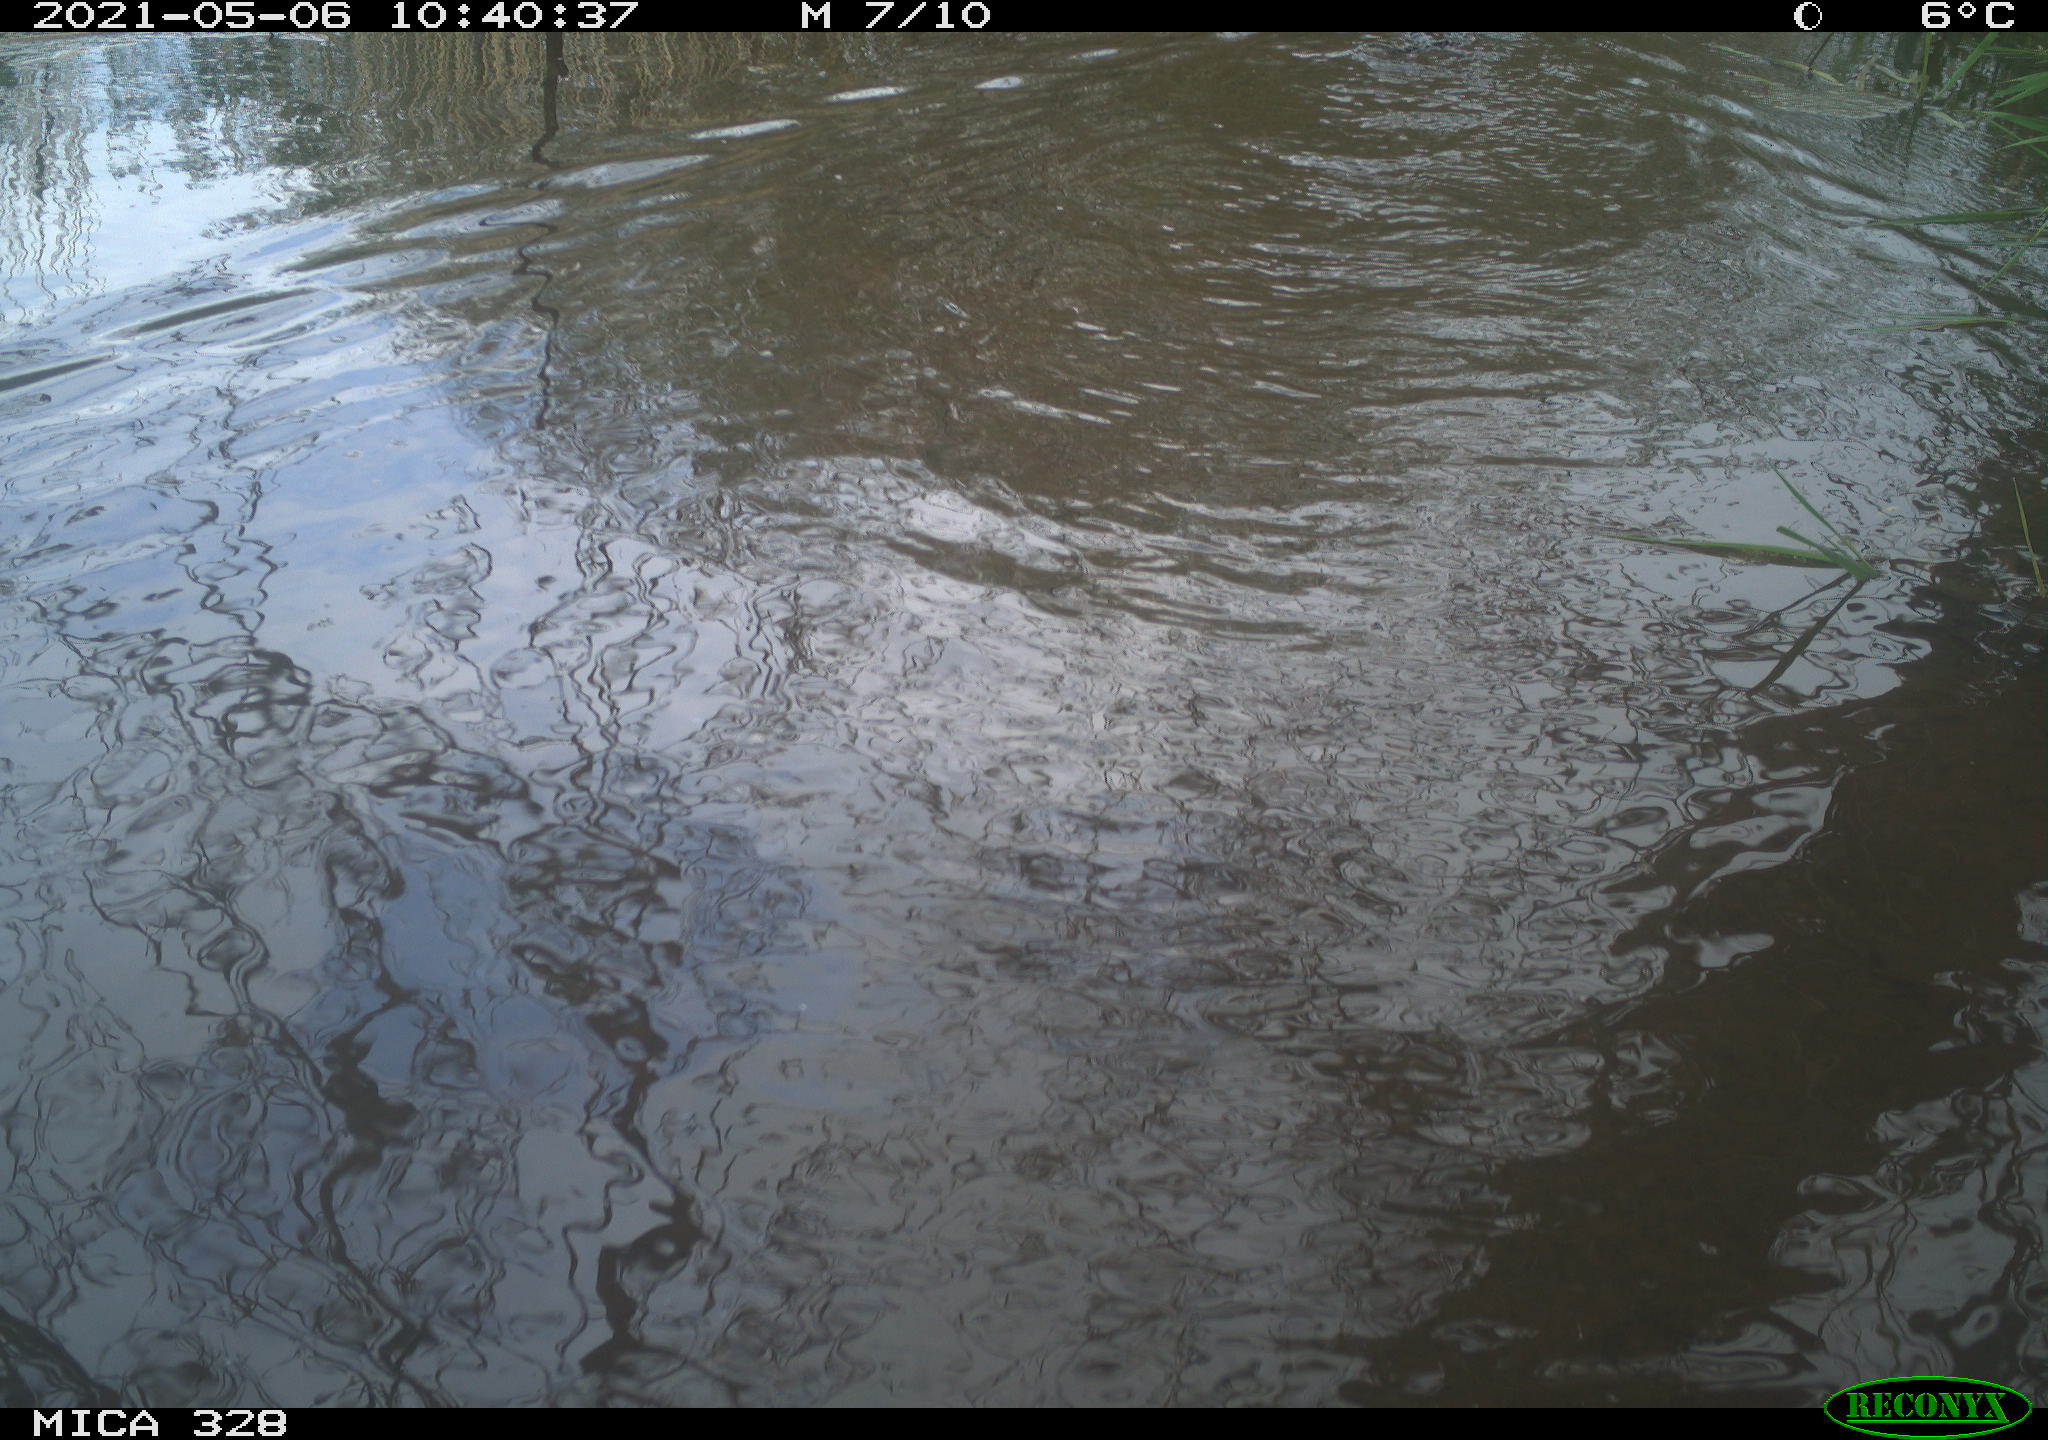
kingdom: Animalia
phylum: Chordata
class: Mammalia
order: Rodentia
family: Cricetidae
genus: Ondatra
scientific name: Ondatra zibethicus
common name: Muskrat
